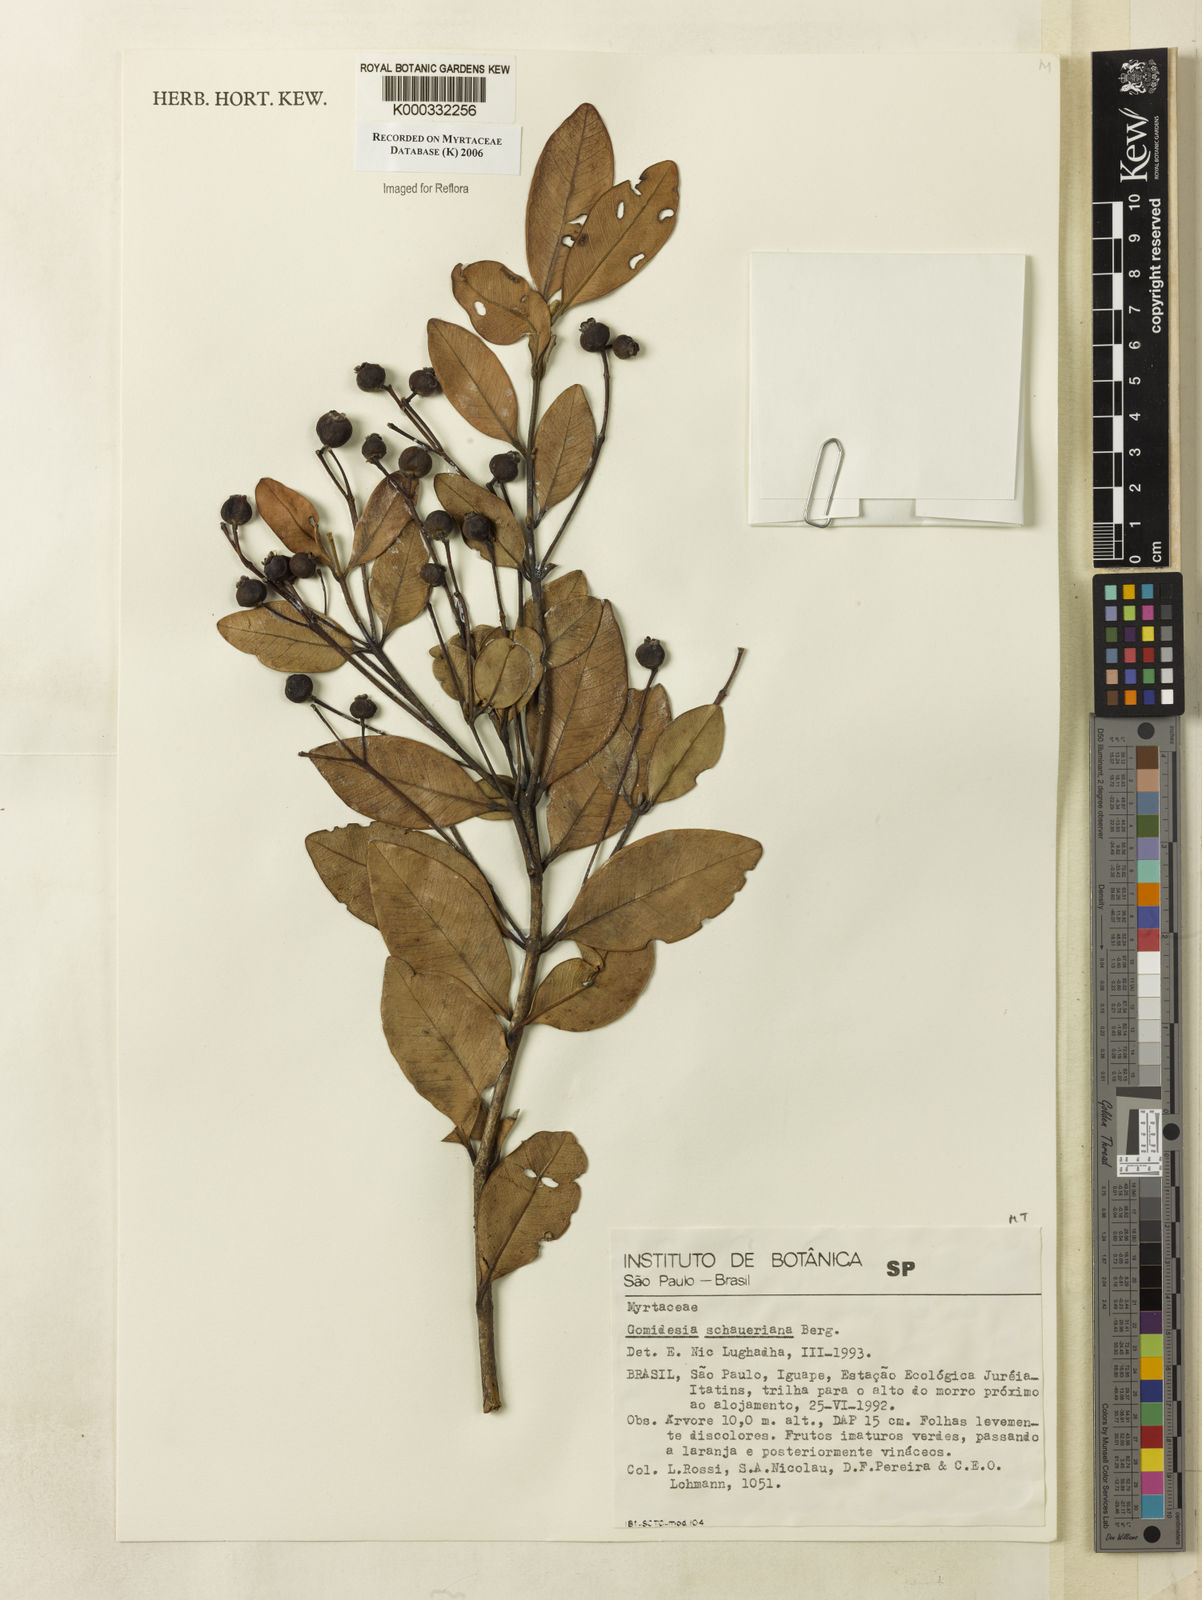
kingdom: Plantae
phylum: Tracheophyta
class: Magnoliopsida
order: Myrtales
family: Myrtaceae
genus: Myrcia
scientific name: Myrcia freyreissiana
